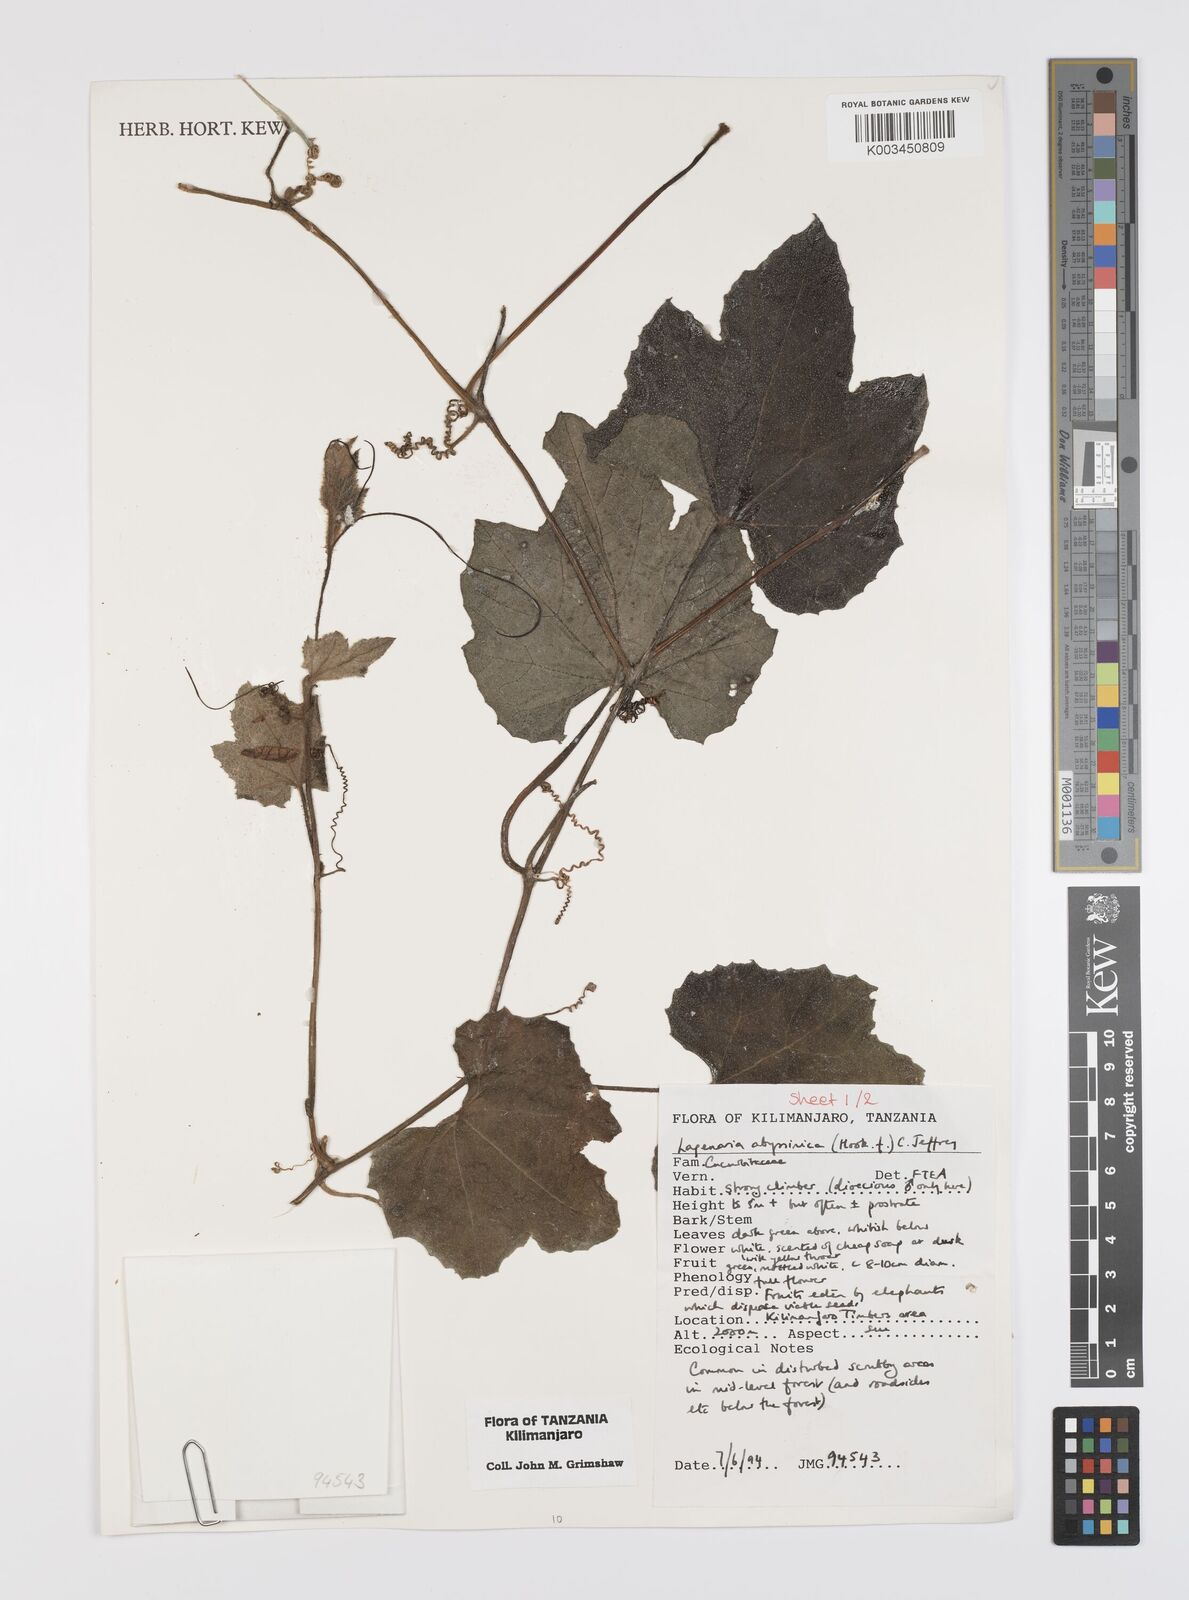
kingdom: Plantae
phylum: Tracheophyta
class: Magnoliopsida
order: Cucurbitales
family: Cucurbitaceae
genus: Lagenaria
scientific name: Lagenaria abyssinica
